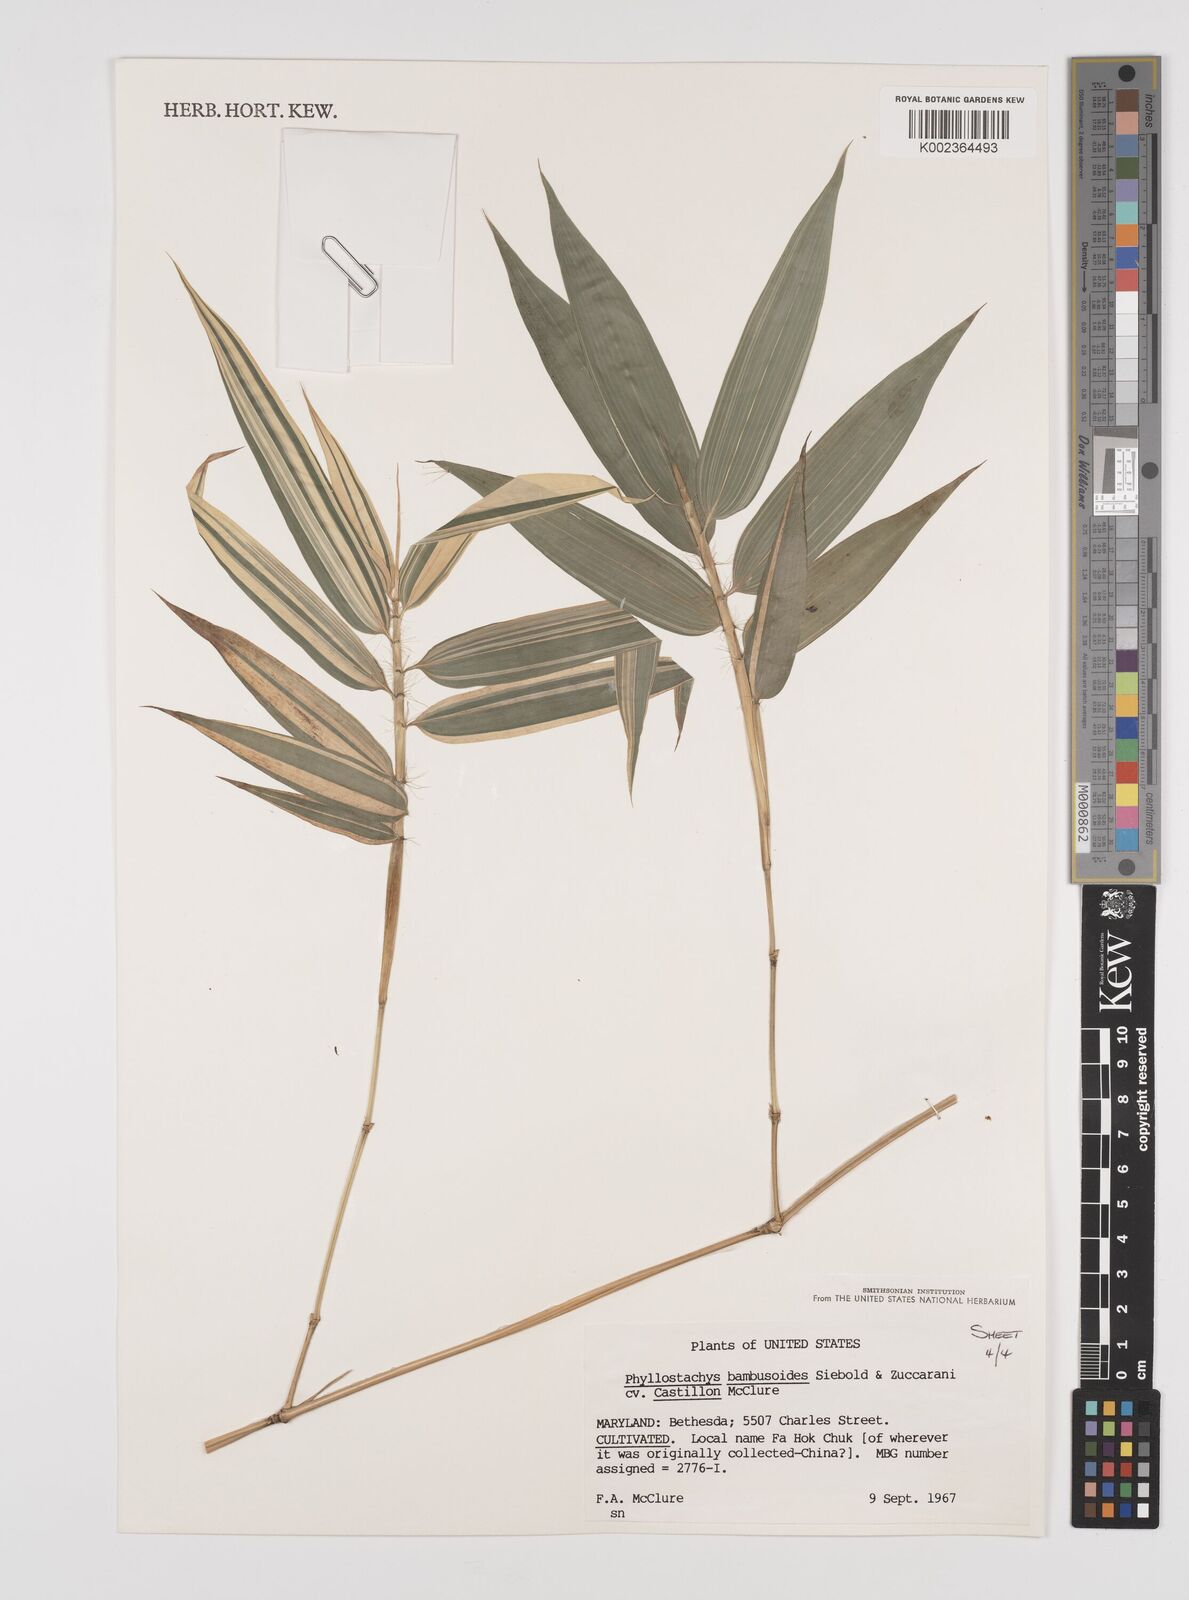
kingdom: Plantae
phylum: Tracheophyta
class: Liliopsida
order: Poales
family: Poaceae
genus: Phyllostachys
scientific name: Phyllostachys reticulata
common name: Bamboo
